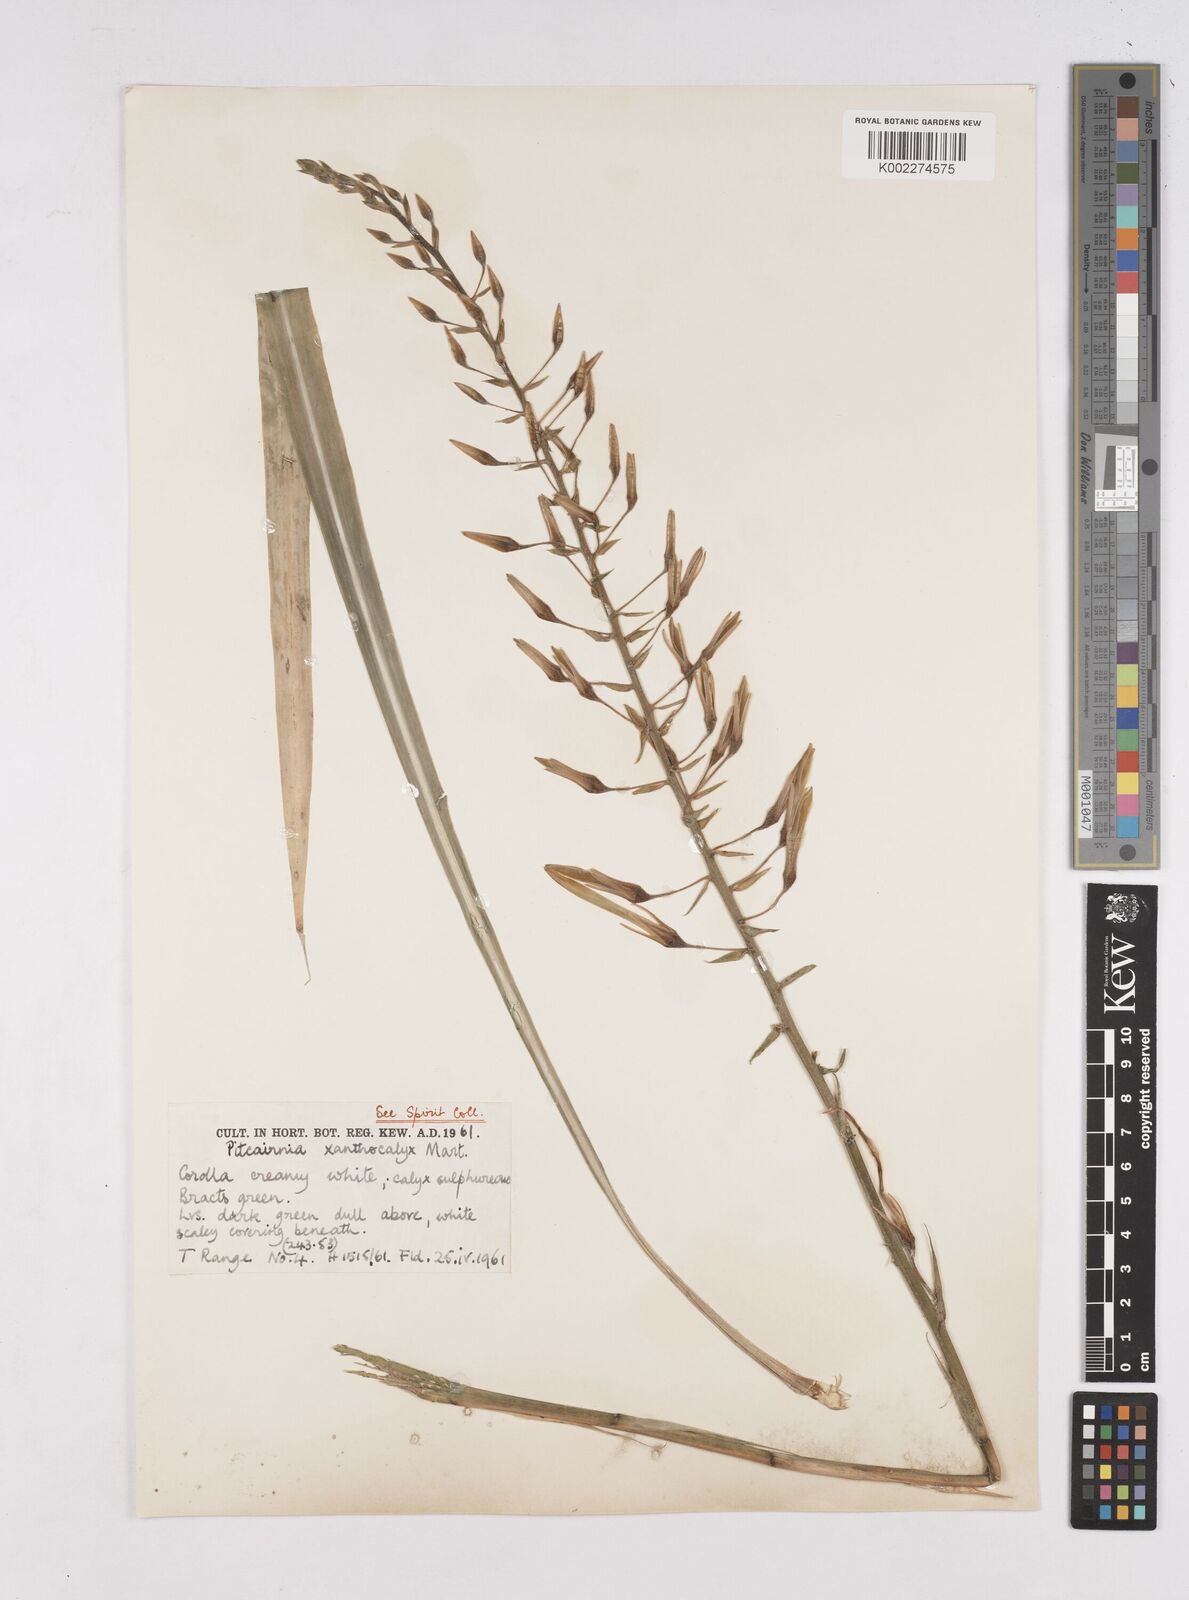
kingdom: Plantae
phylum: Tracheophyta
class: Liliopsida
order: Poales
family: Bromeliaceae
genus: Pitcairnia
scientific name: Pitcairnia xanthocalyx
